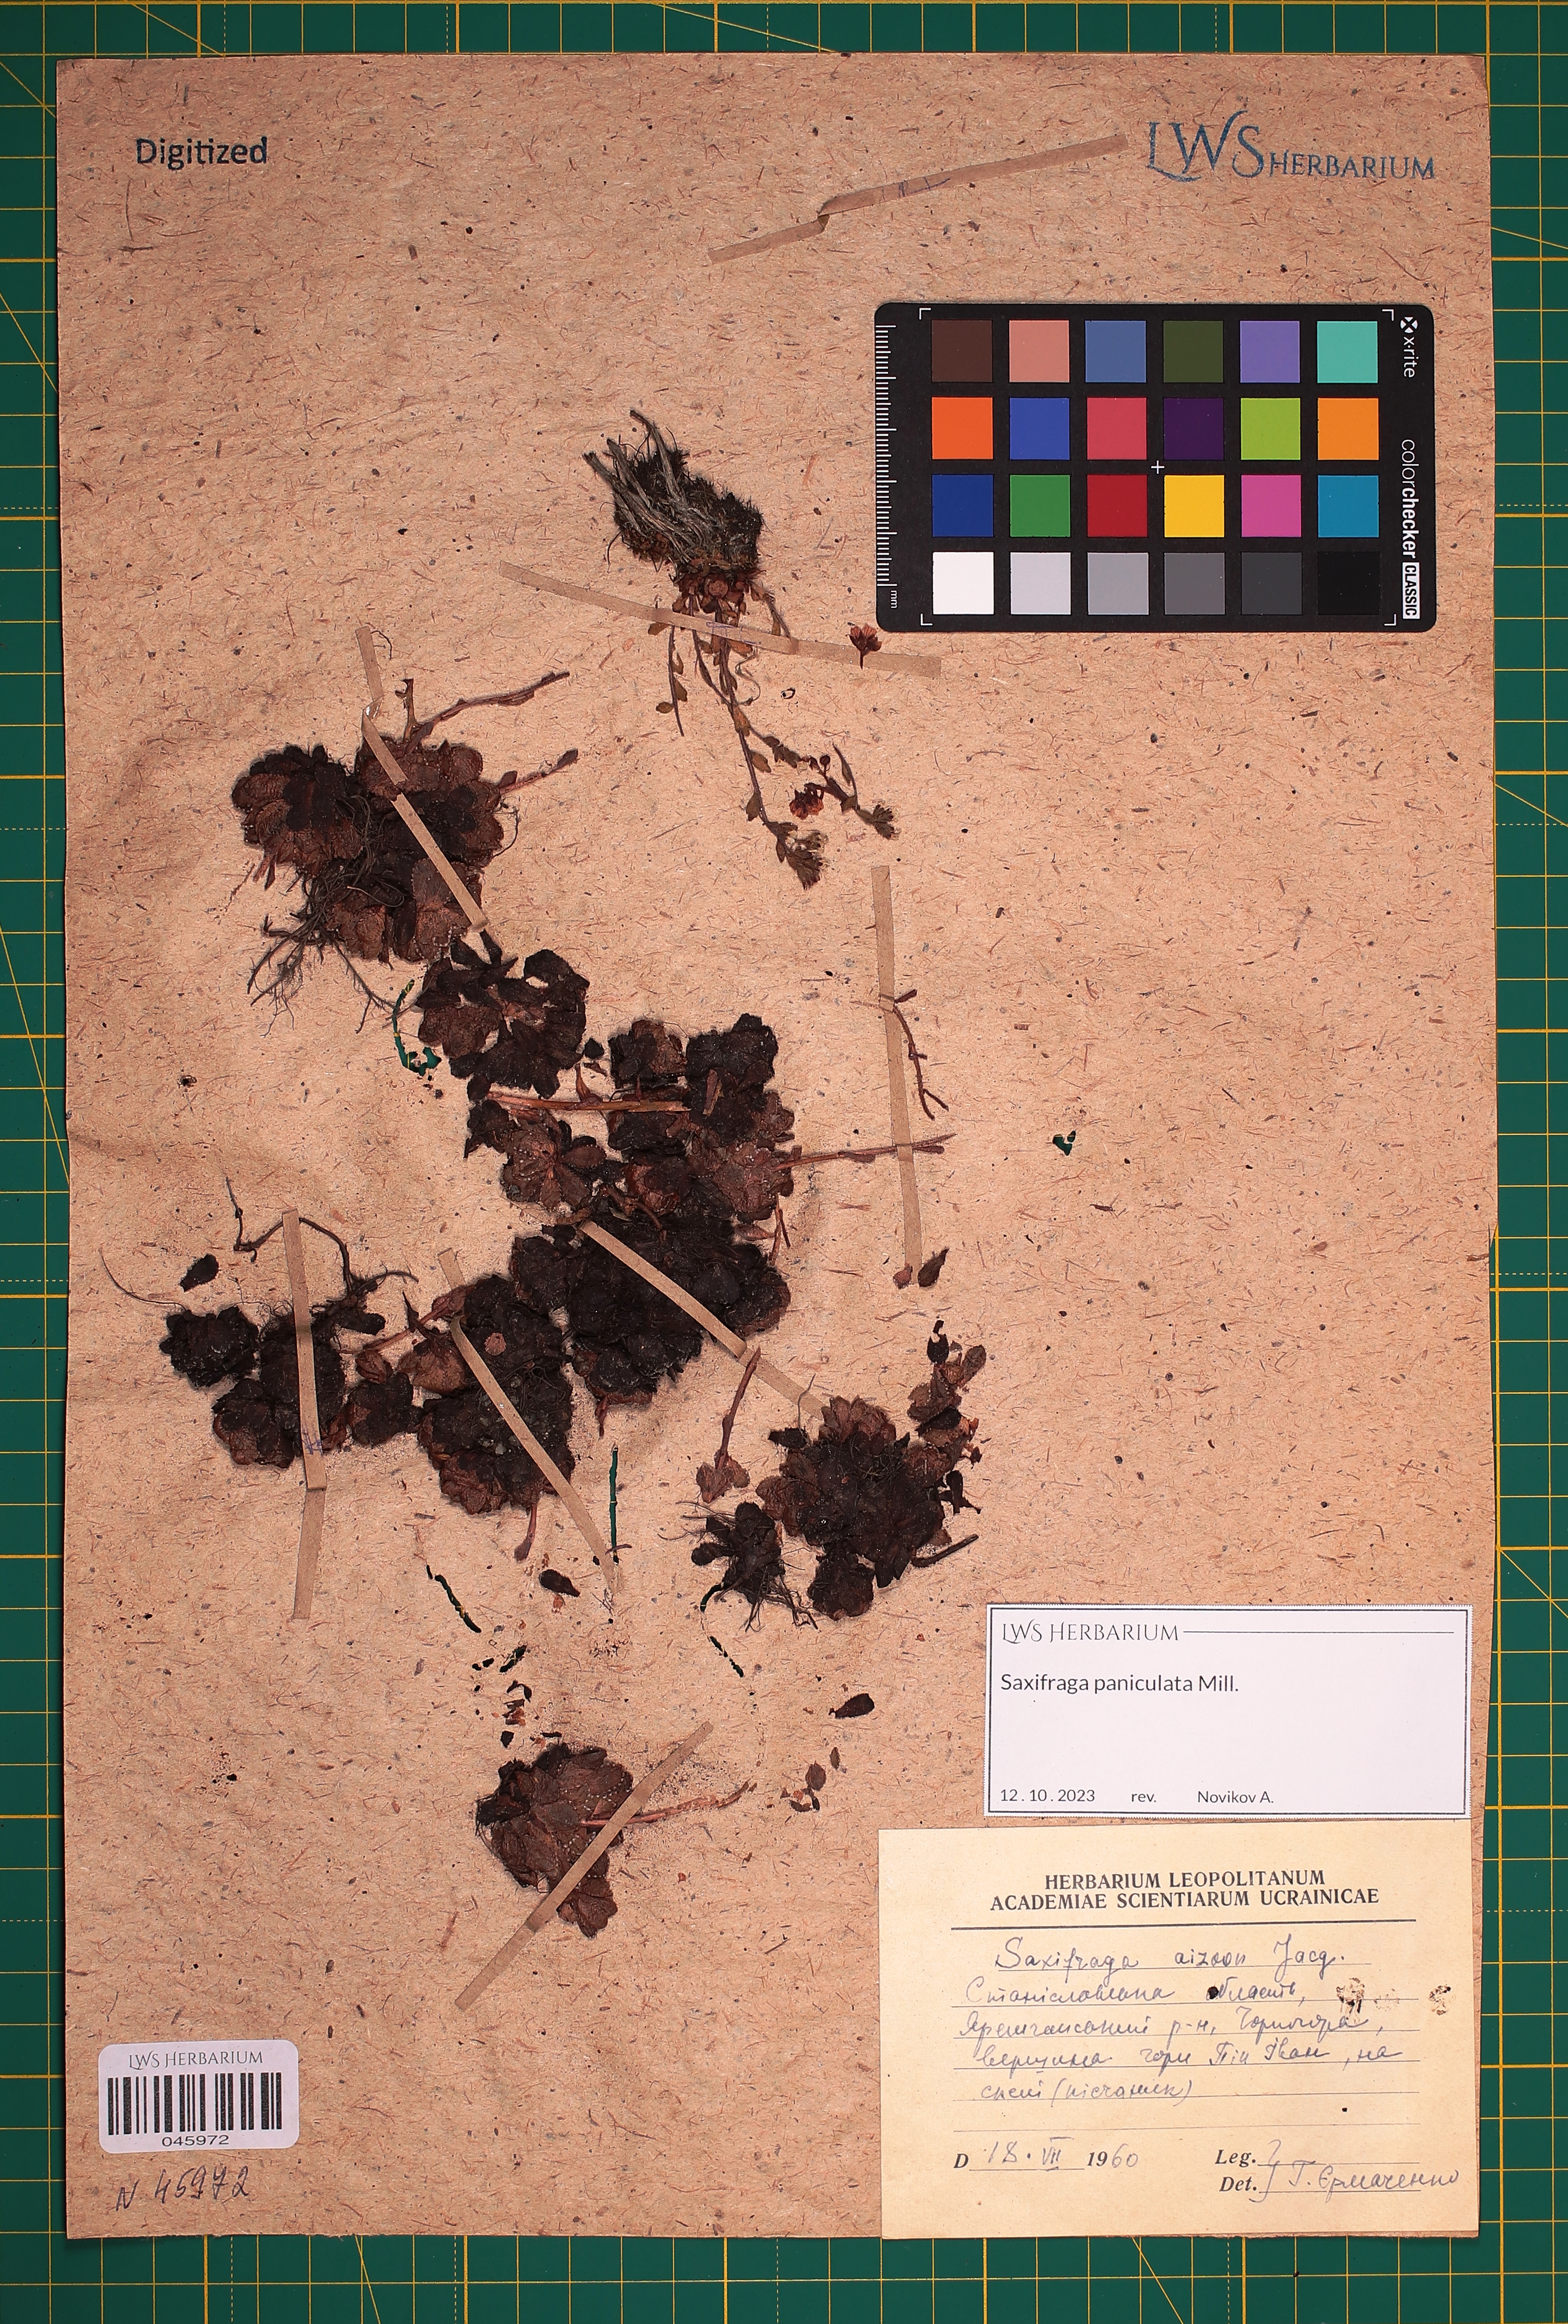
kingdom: Plantae
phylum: Tracheophyta
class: Magnoliopsida
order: Saxifragales
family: Saxifragaceae
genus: Saxifraga
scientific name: Saxifraga paniculata
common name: Livelong saxifrage
